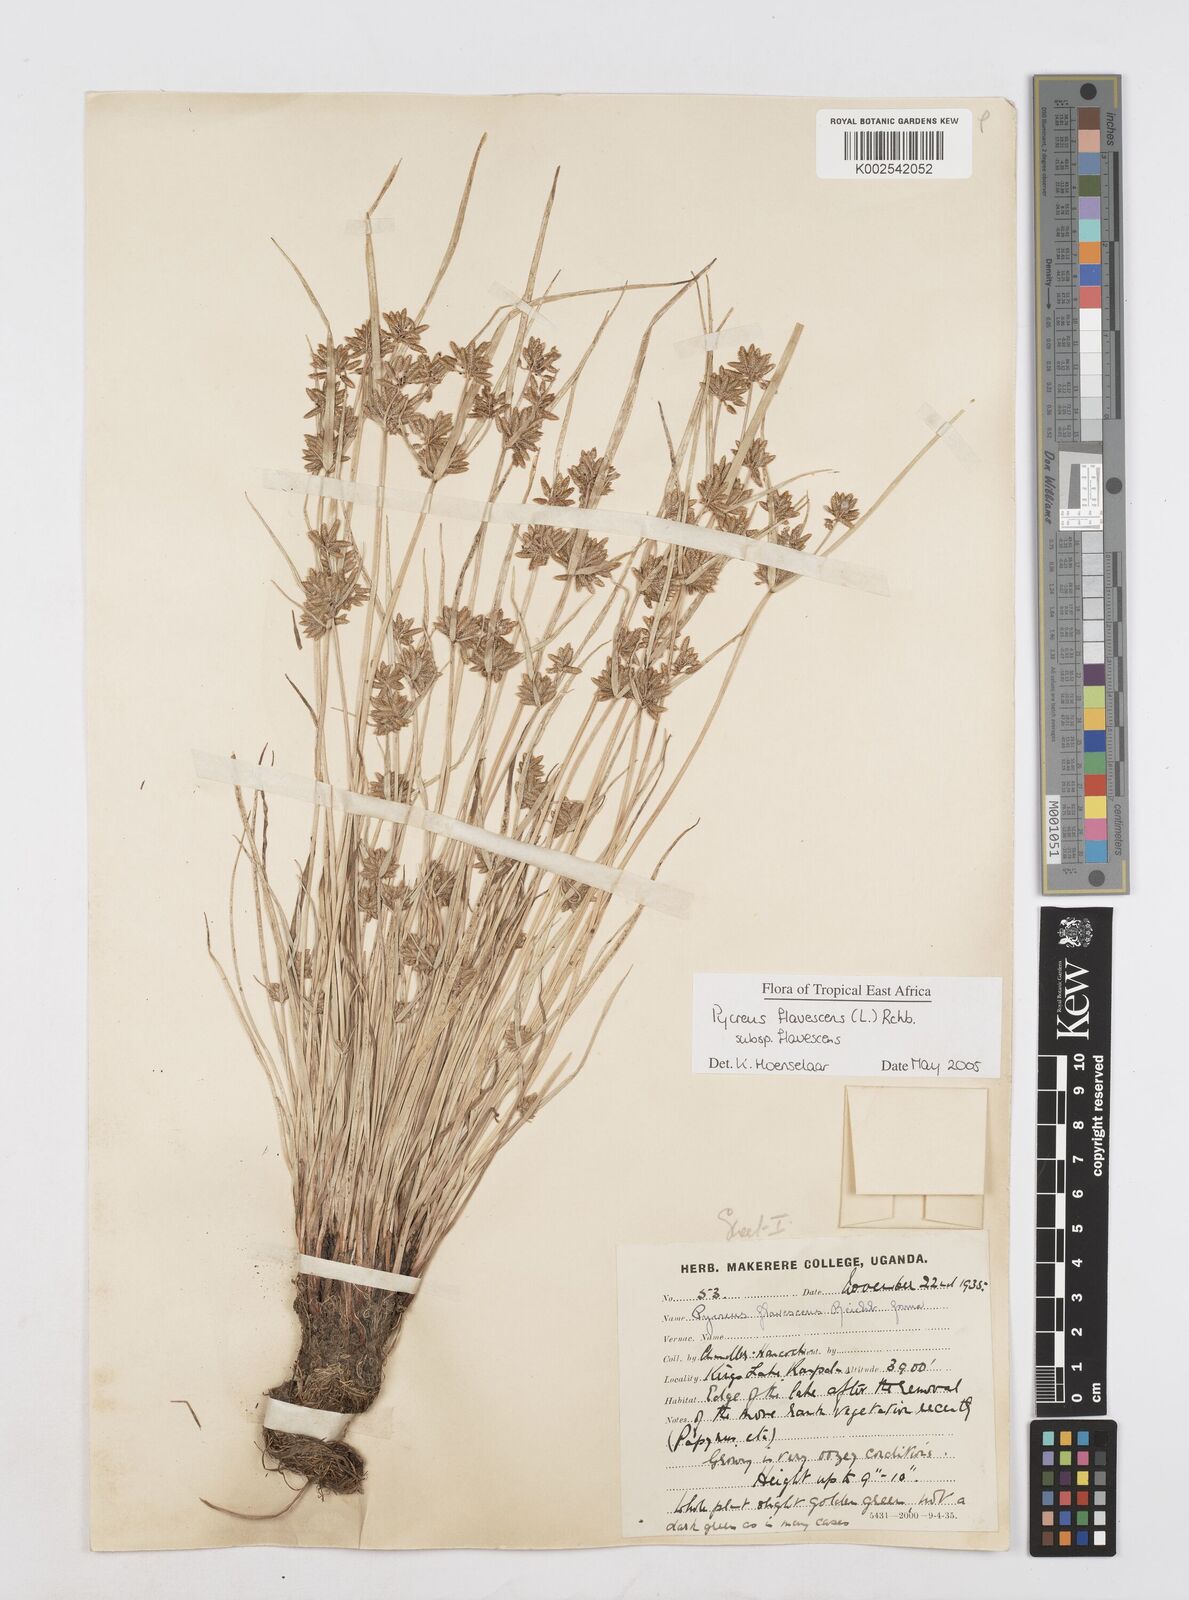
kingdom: Plantae
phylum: Tracheophyta
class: Liliopsida
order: Poales
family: Cyperaceae
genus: Cyperus
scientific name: Cyperus flavescens
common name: Yellow galingale
